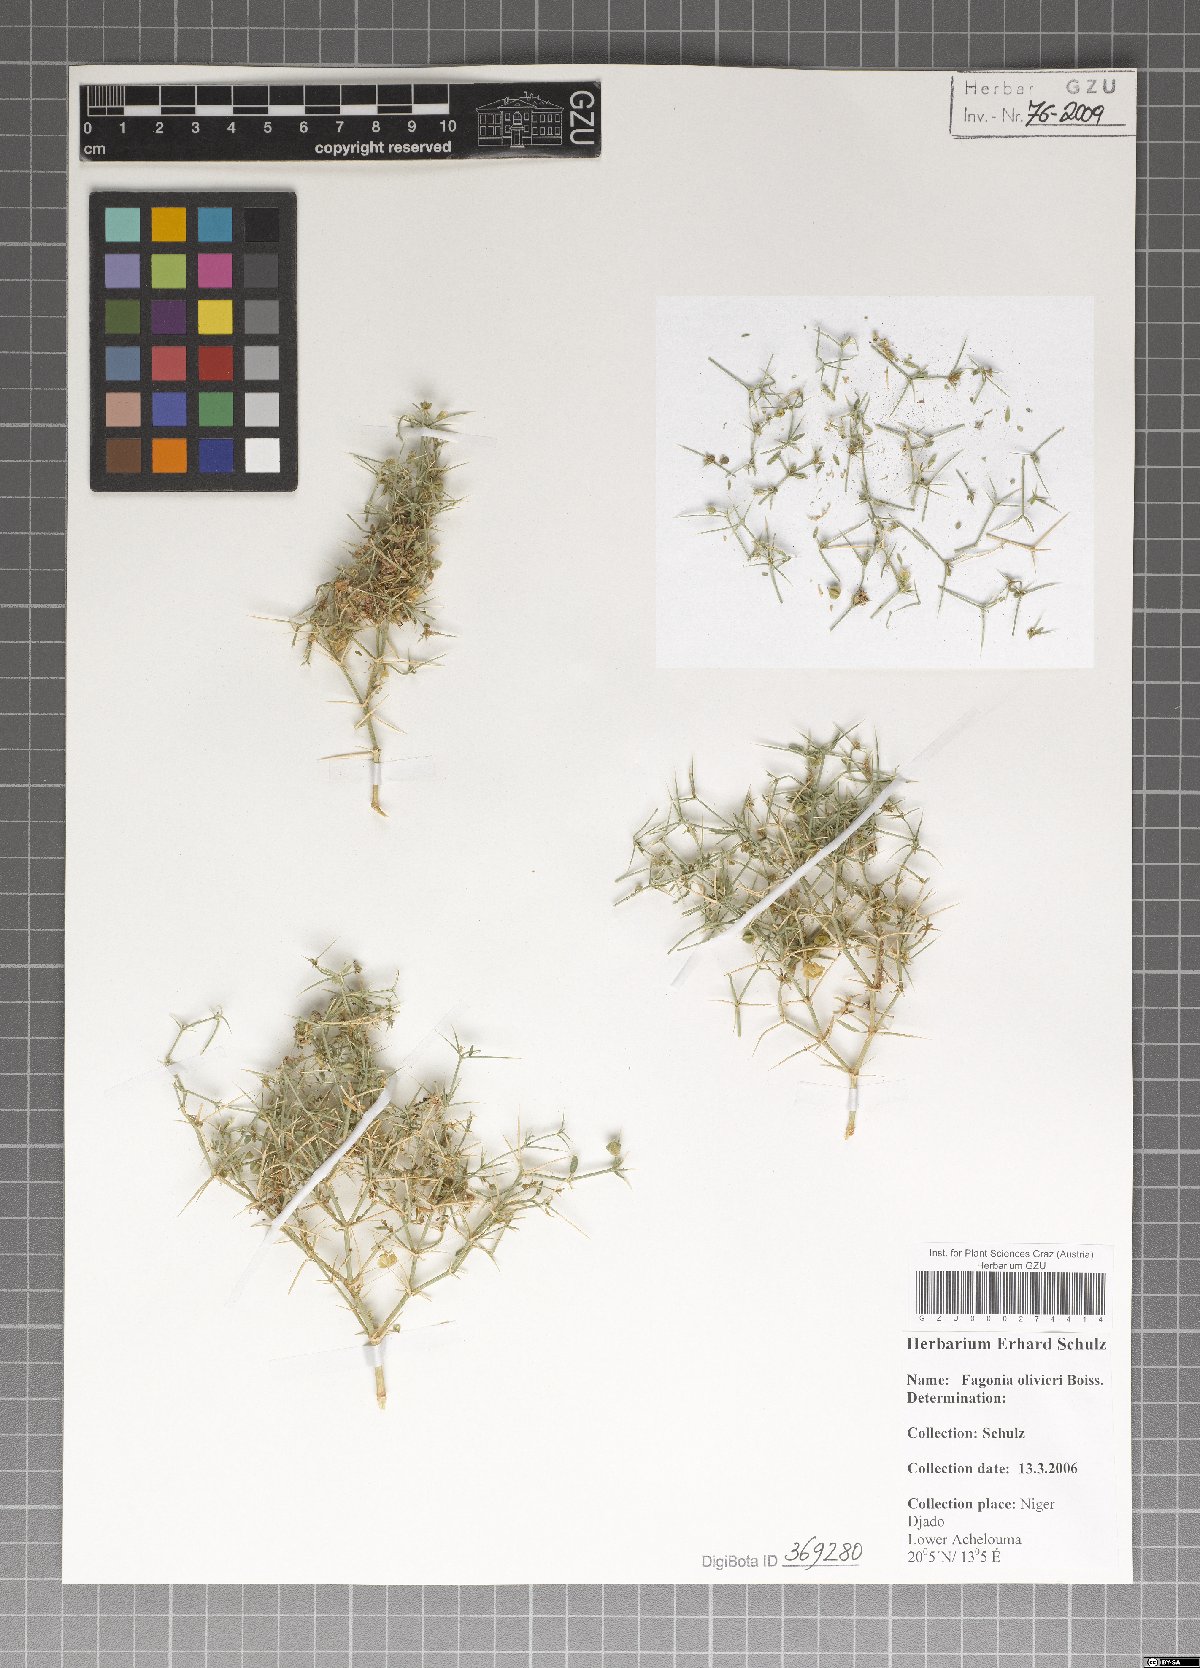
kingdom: Plantae
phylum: Tracheophyta
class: Magnoliopsida
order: Zygophyllales
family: Zygophyllaceae
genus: Fagonia
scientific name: Fagonia olivieri
